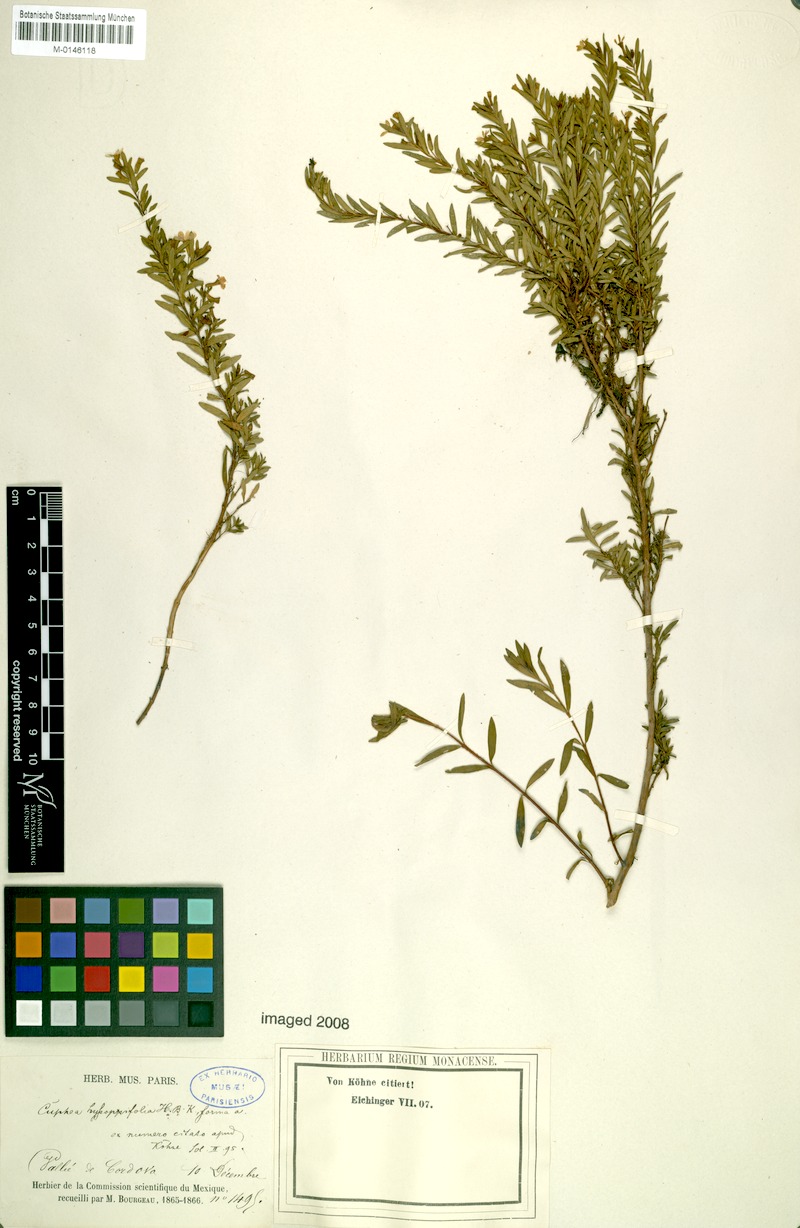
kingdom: Plantae
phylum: Tracheophyta
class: Magnoliopsida
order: Myrtales
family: Lythraceae
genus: Cuphea
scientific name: Cuphea hyssopifolia
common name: False heather
